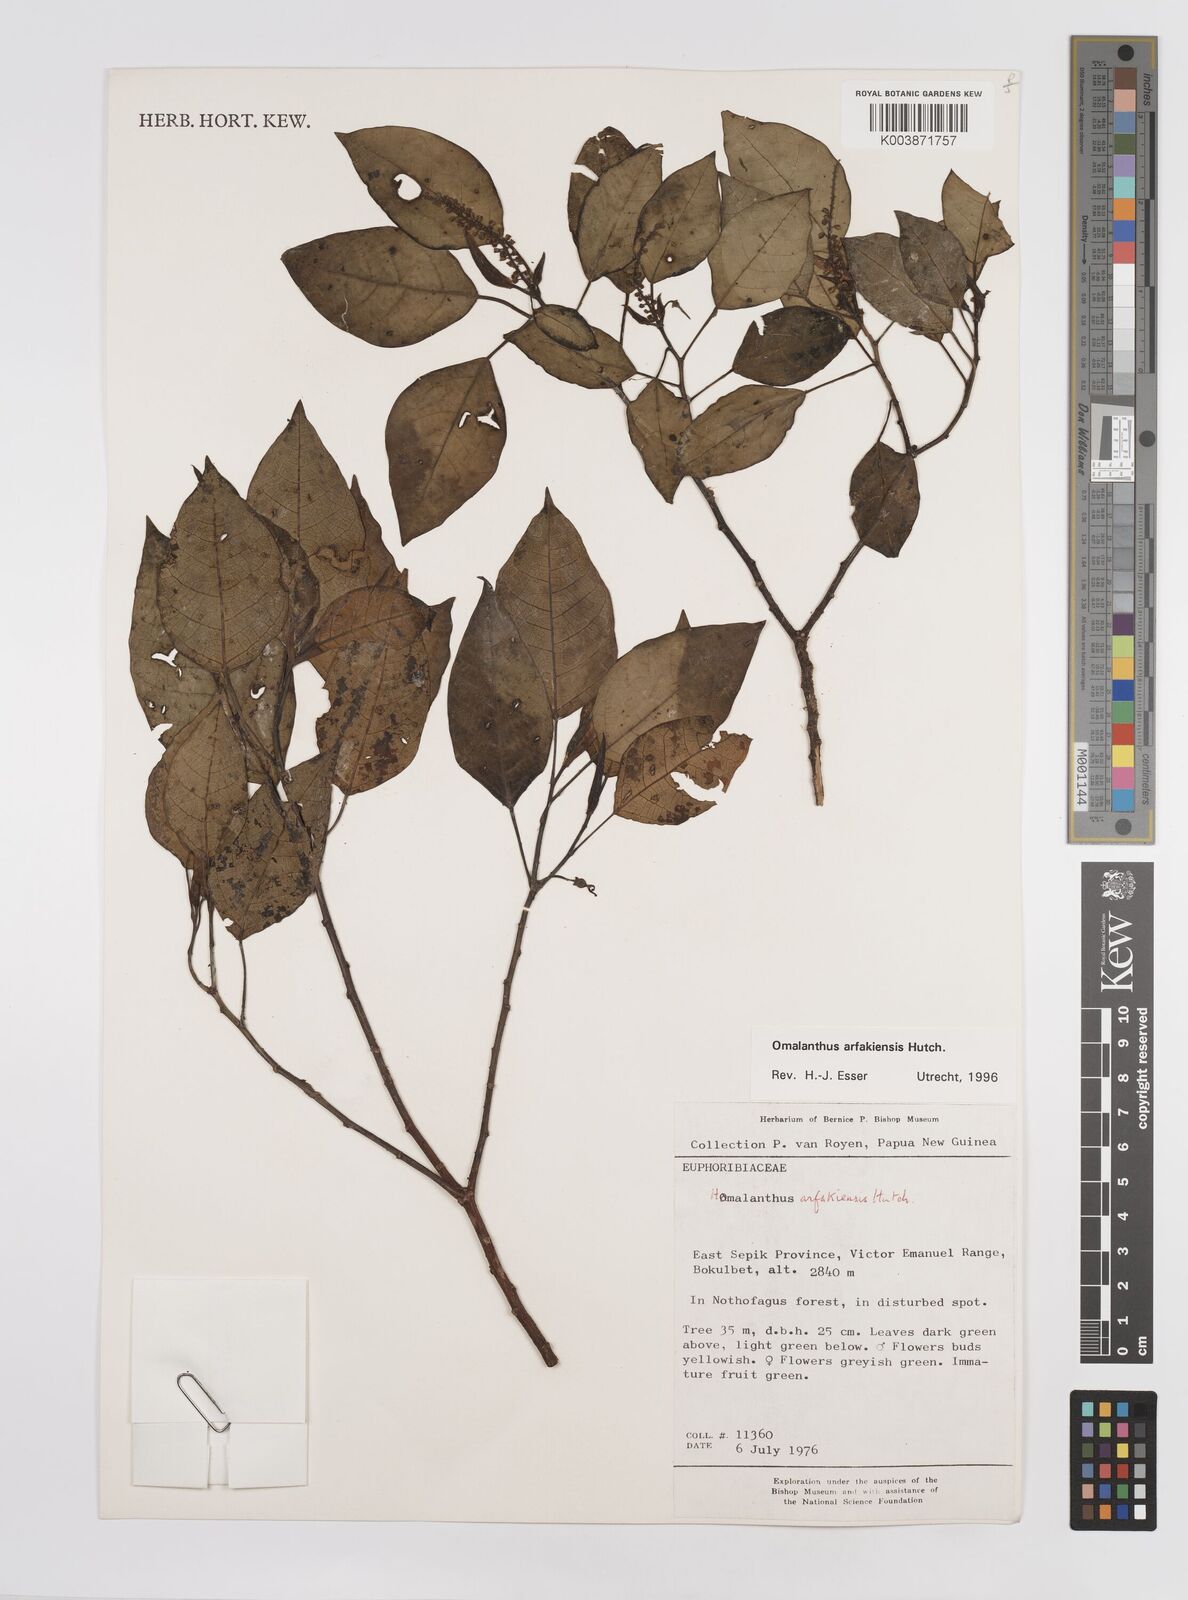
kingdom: Plantae
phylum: Tracheophyta
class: Magnoliopsida
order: Malpighiales
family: Euphorbiaceae
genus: Homalanthus
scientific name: Homalanthus arfakiensis
